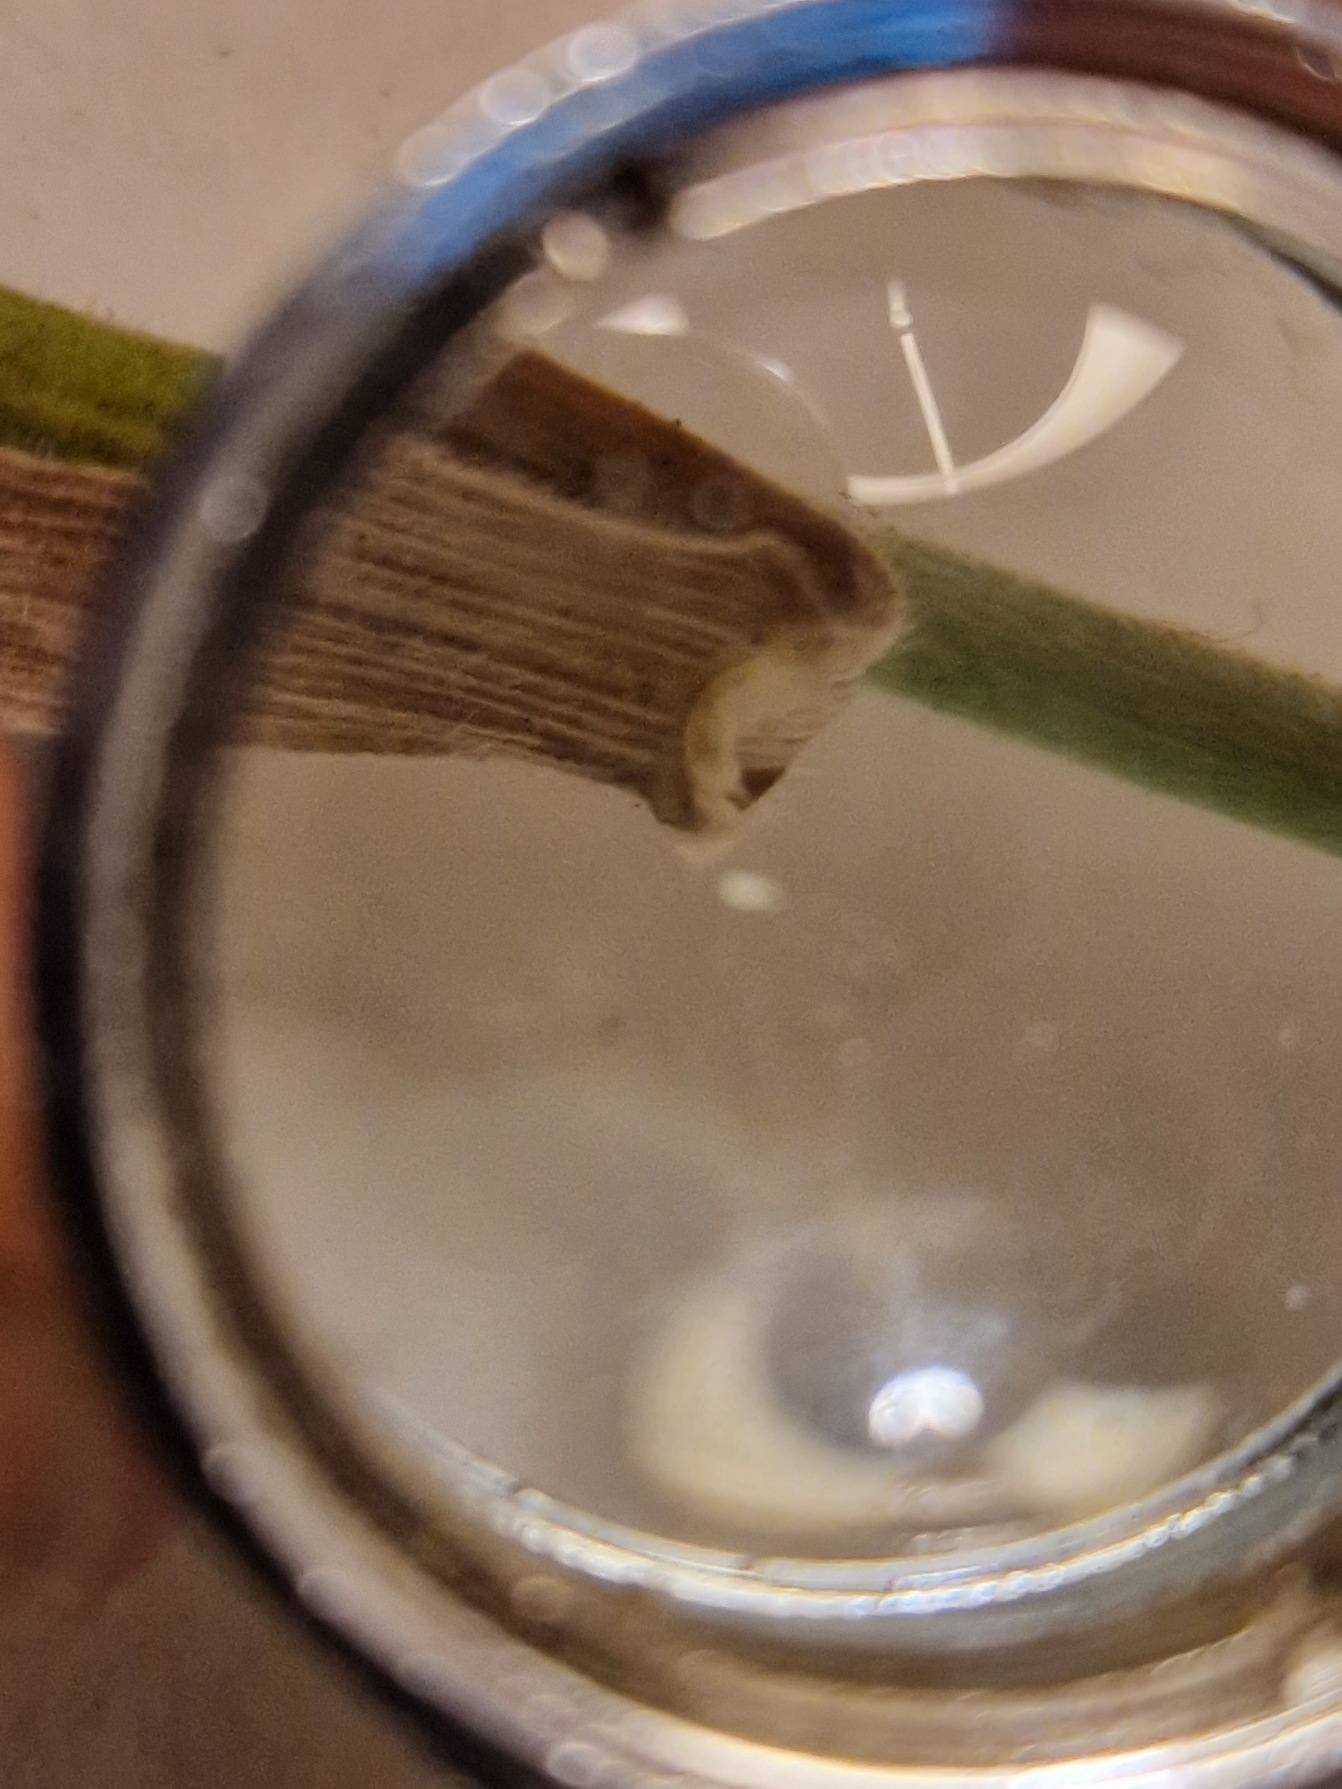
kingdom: Plantae
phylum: Tracheophyta
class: Liliopsida
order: Poales
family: Poaceae
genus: Holcus
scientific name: Holcus lanatus
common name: Fløjlsgræs
